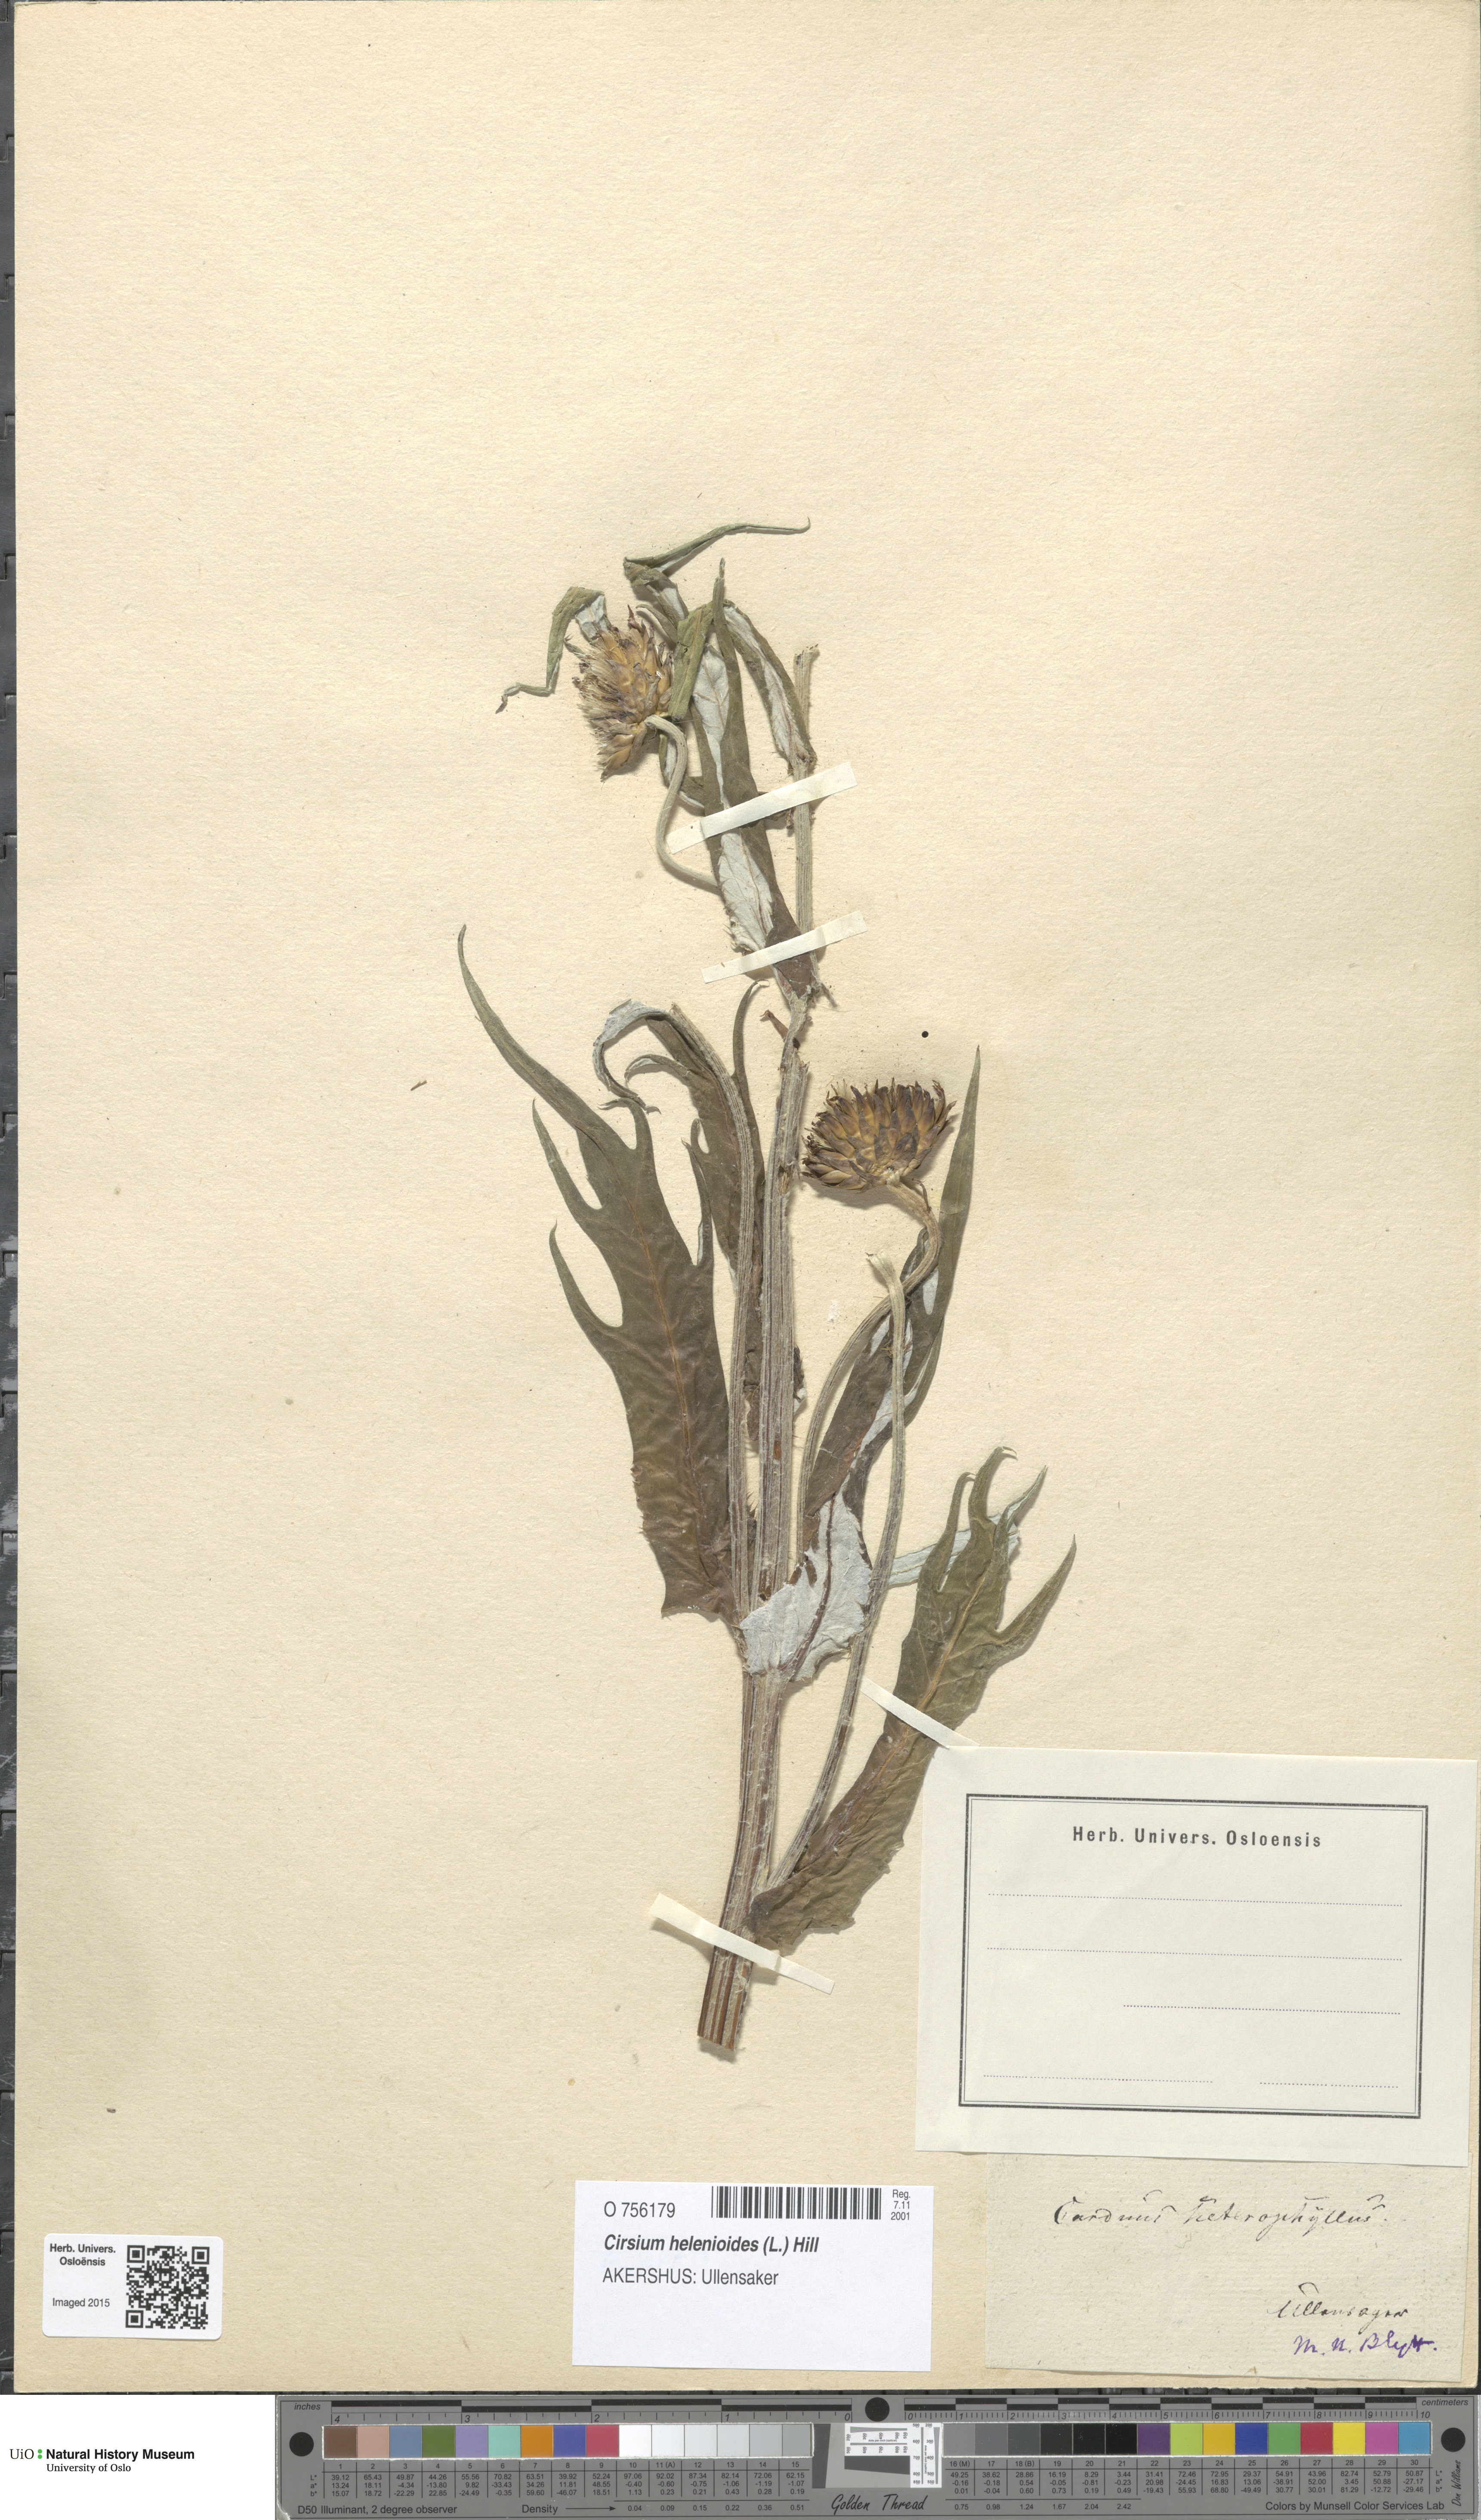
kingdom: Plantae
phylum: Tracheophyta
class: Magnoliopsida
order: Asterales
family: Asteraceae
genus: Cirsium
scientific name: Cirsium heterophyllum
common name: Melancholy thistle
